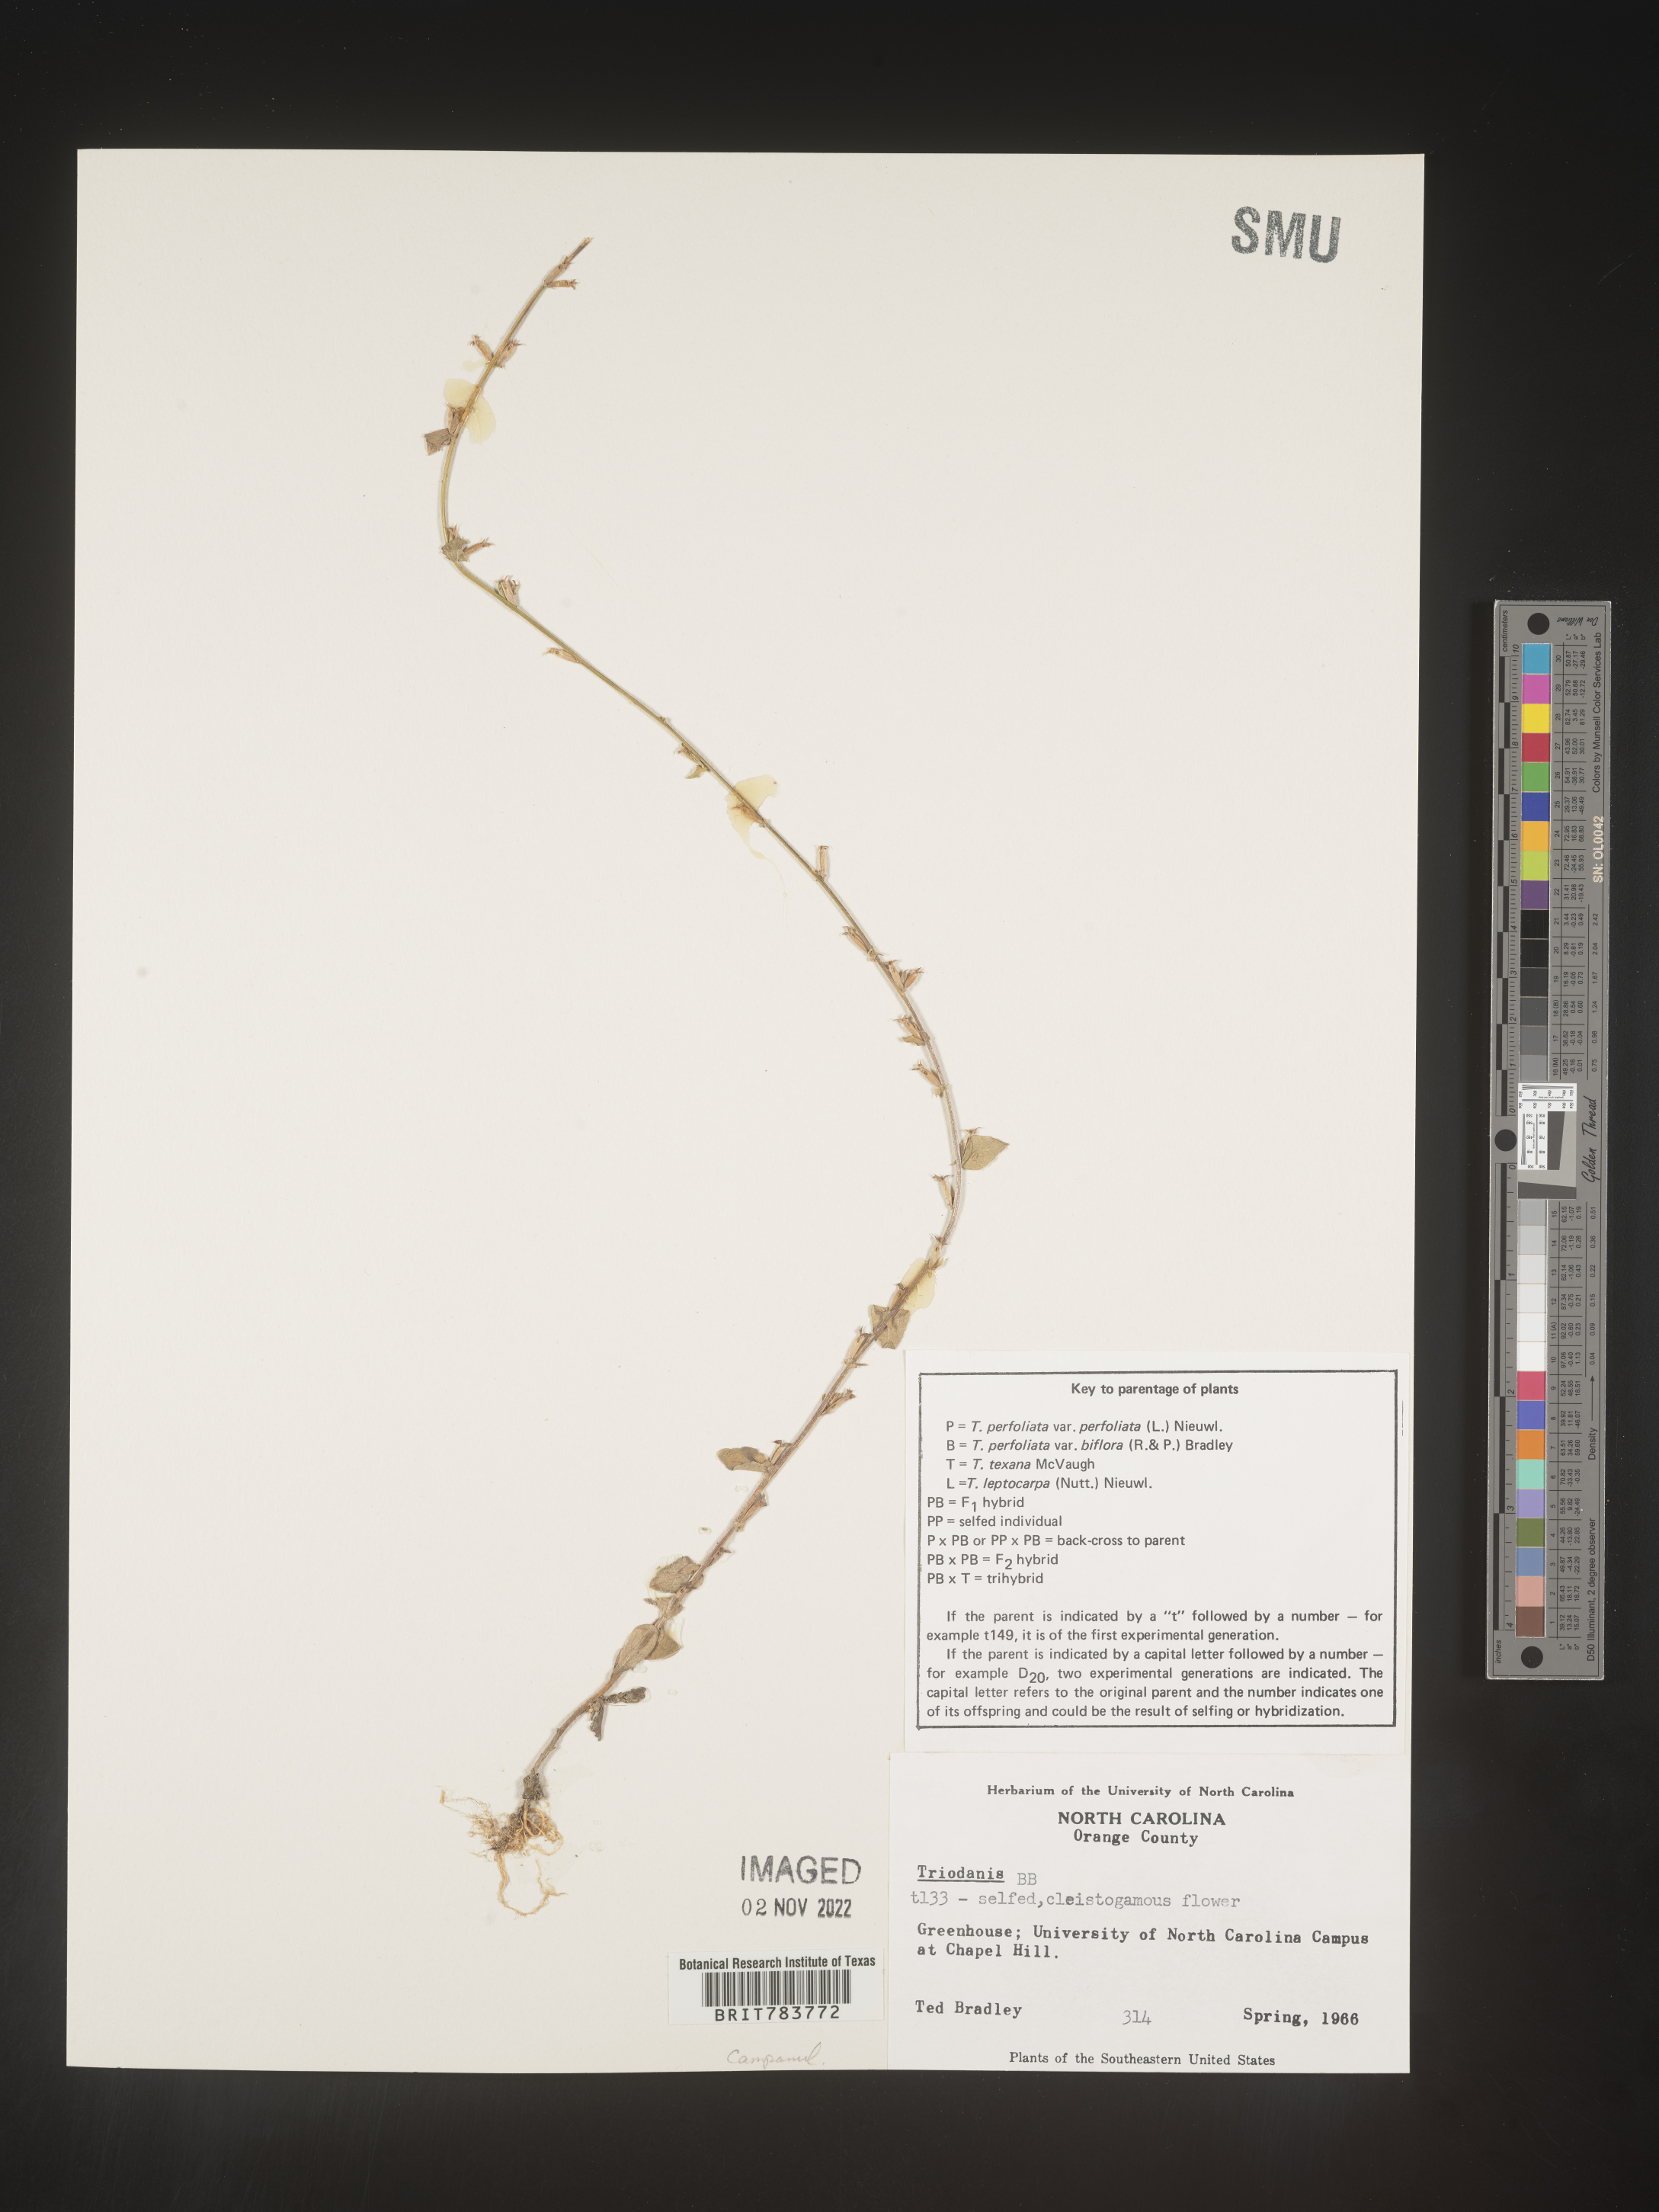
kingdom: Plantae
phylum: Tracheophyta
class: Magnoliopsida
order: Asterales
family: Campanulaceae
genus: Triodanis
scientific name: Triodanis
